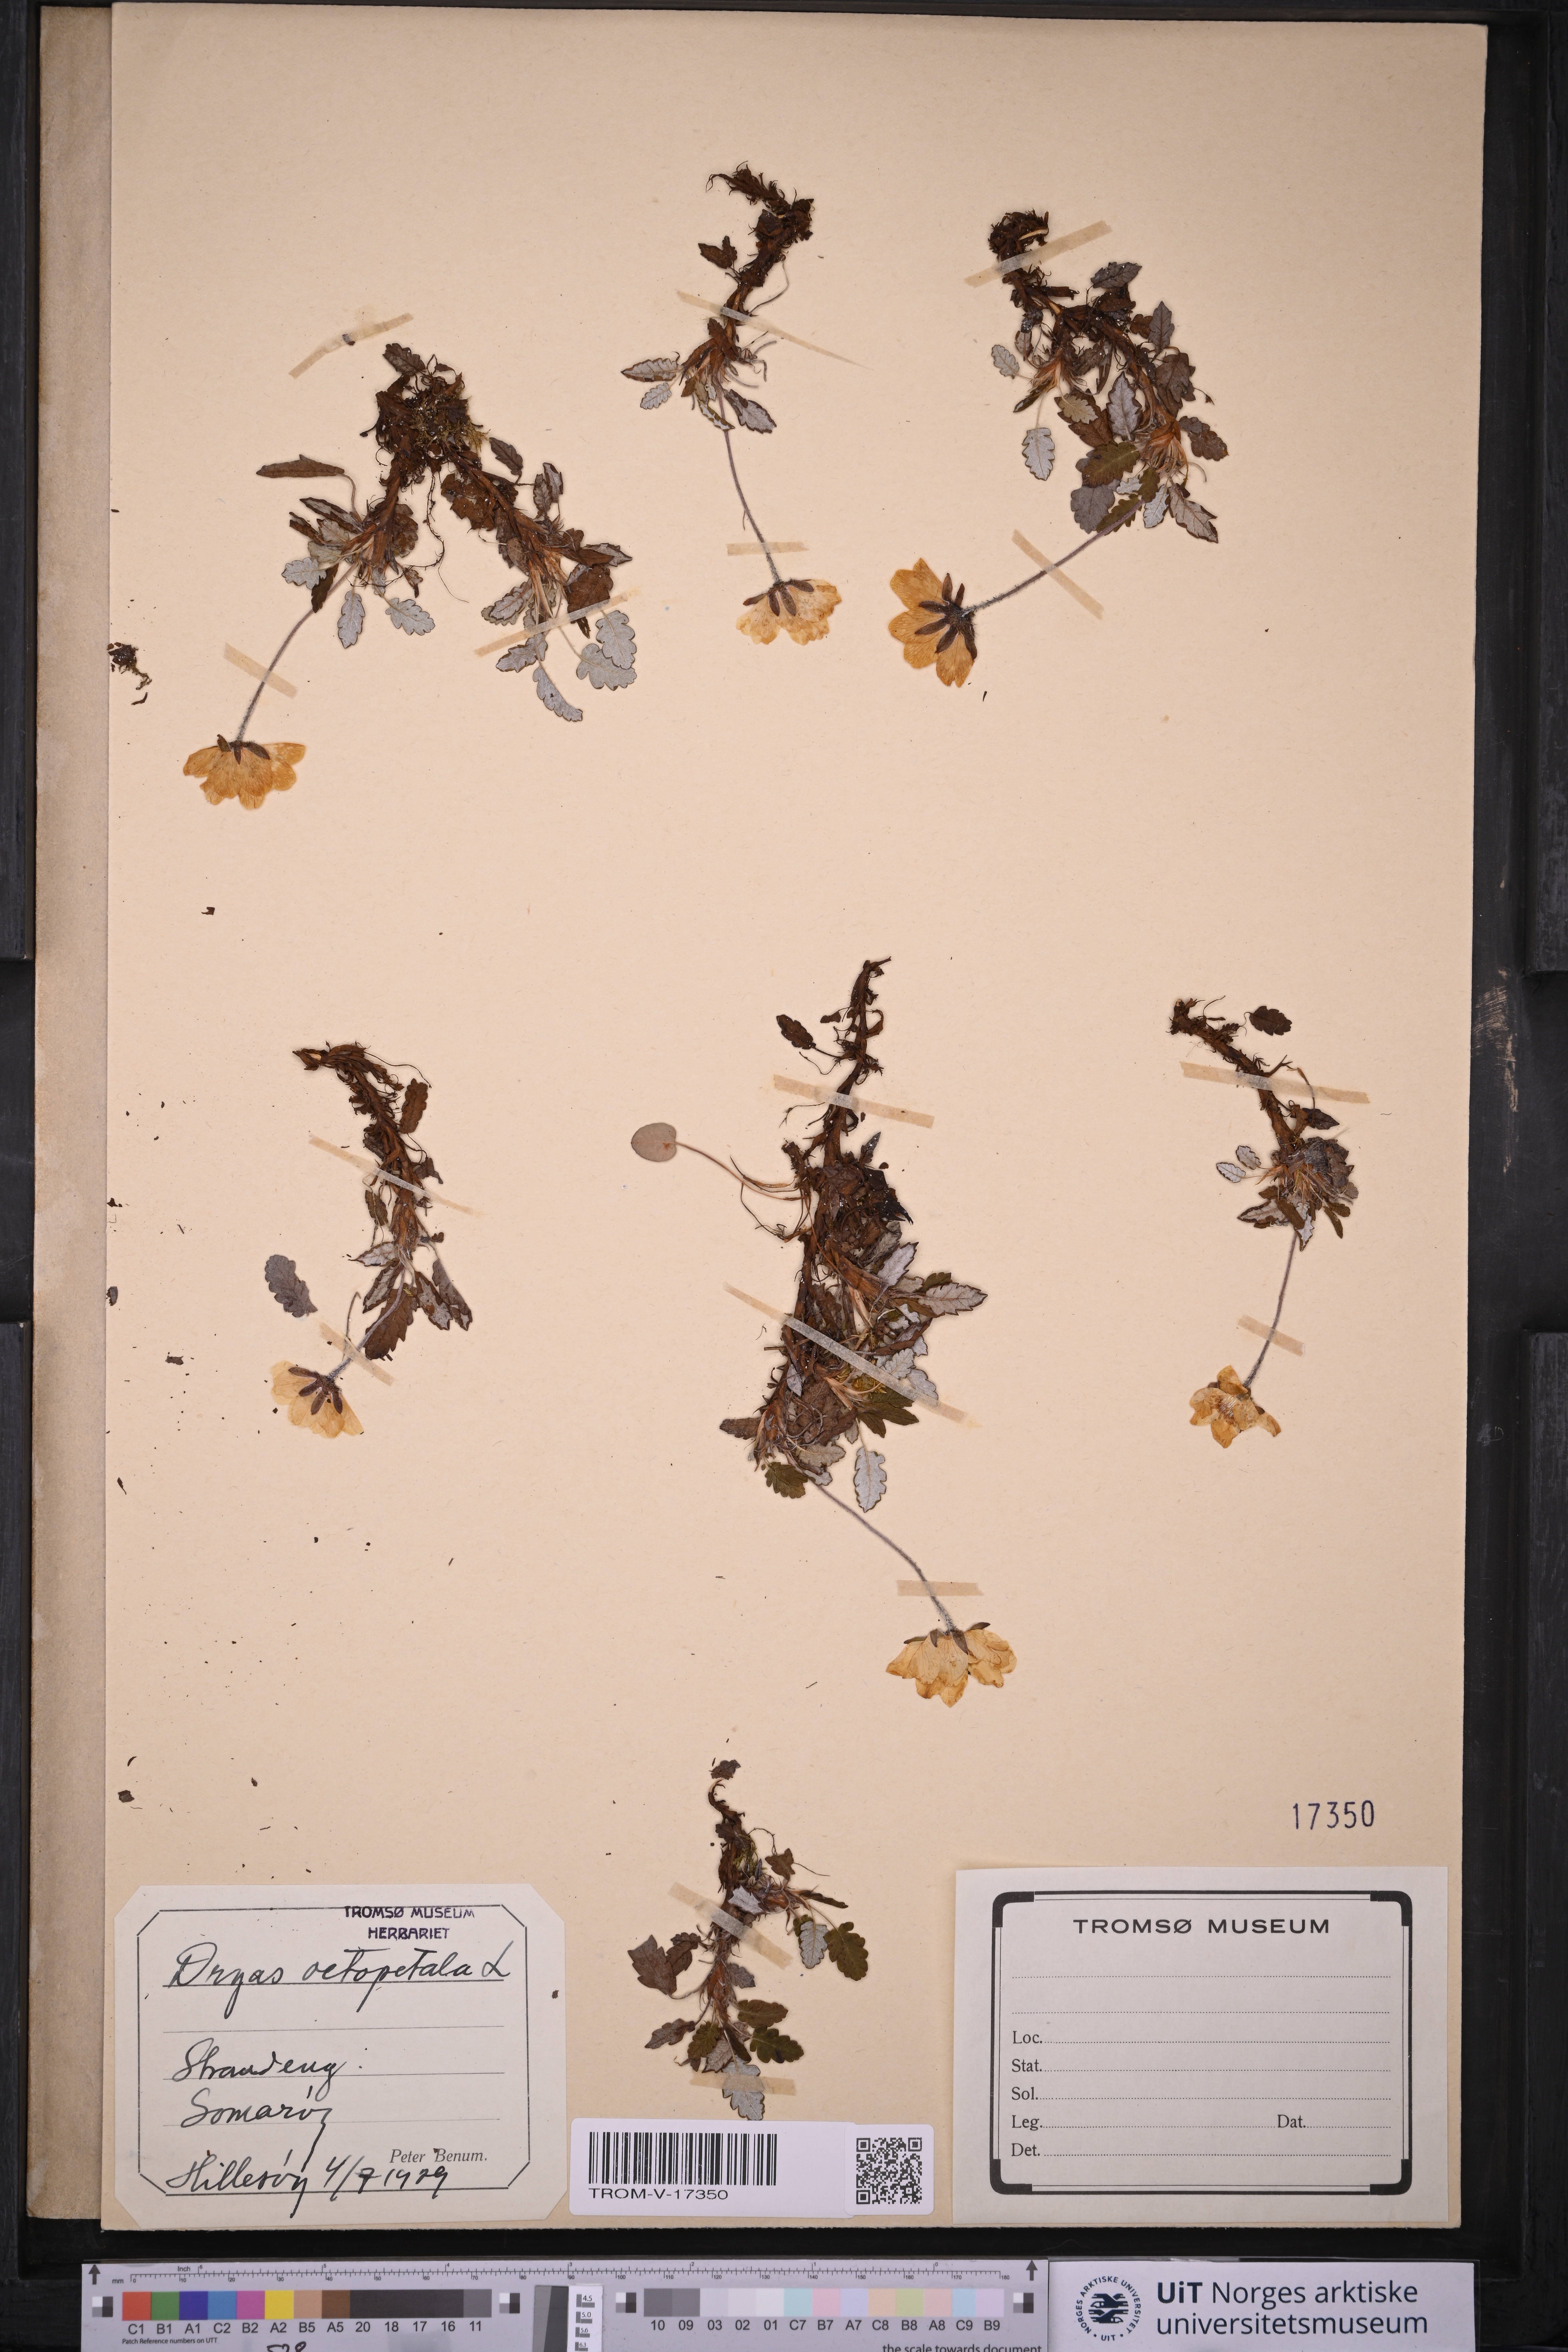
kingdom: Plantae
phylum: Tracheophyta
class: Magnoliopsida
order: Rosales
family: Rosaceae
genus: Dryas
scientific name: Dryas octopetala
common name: Eight-petal mountain-avens
